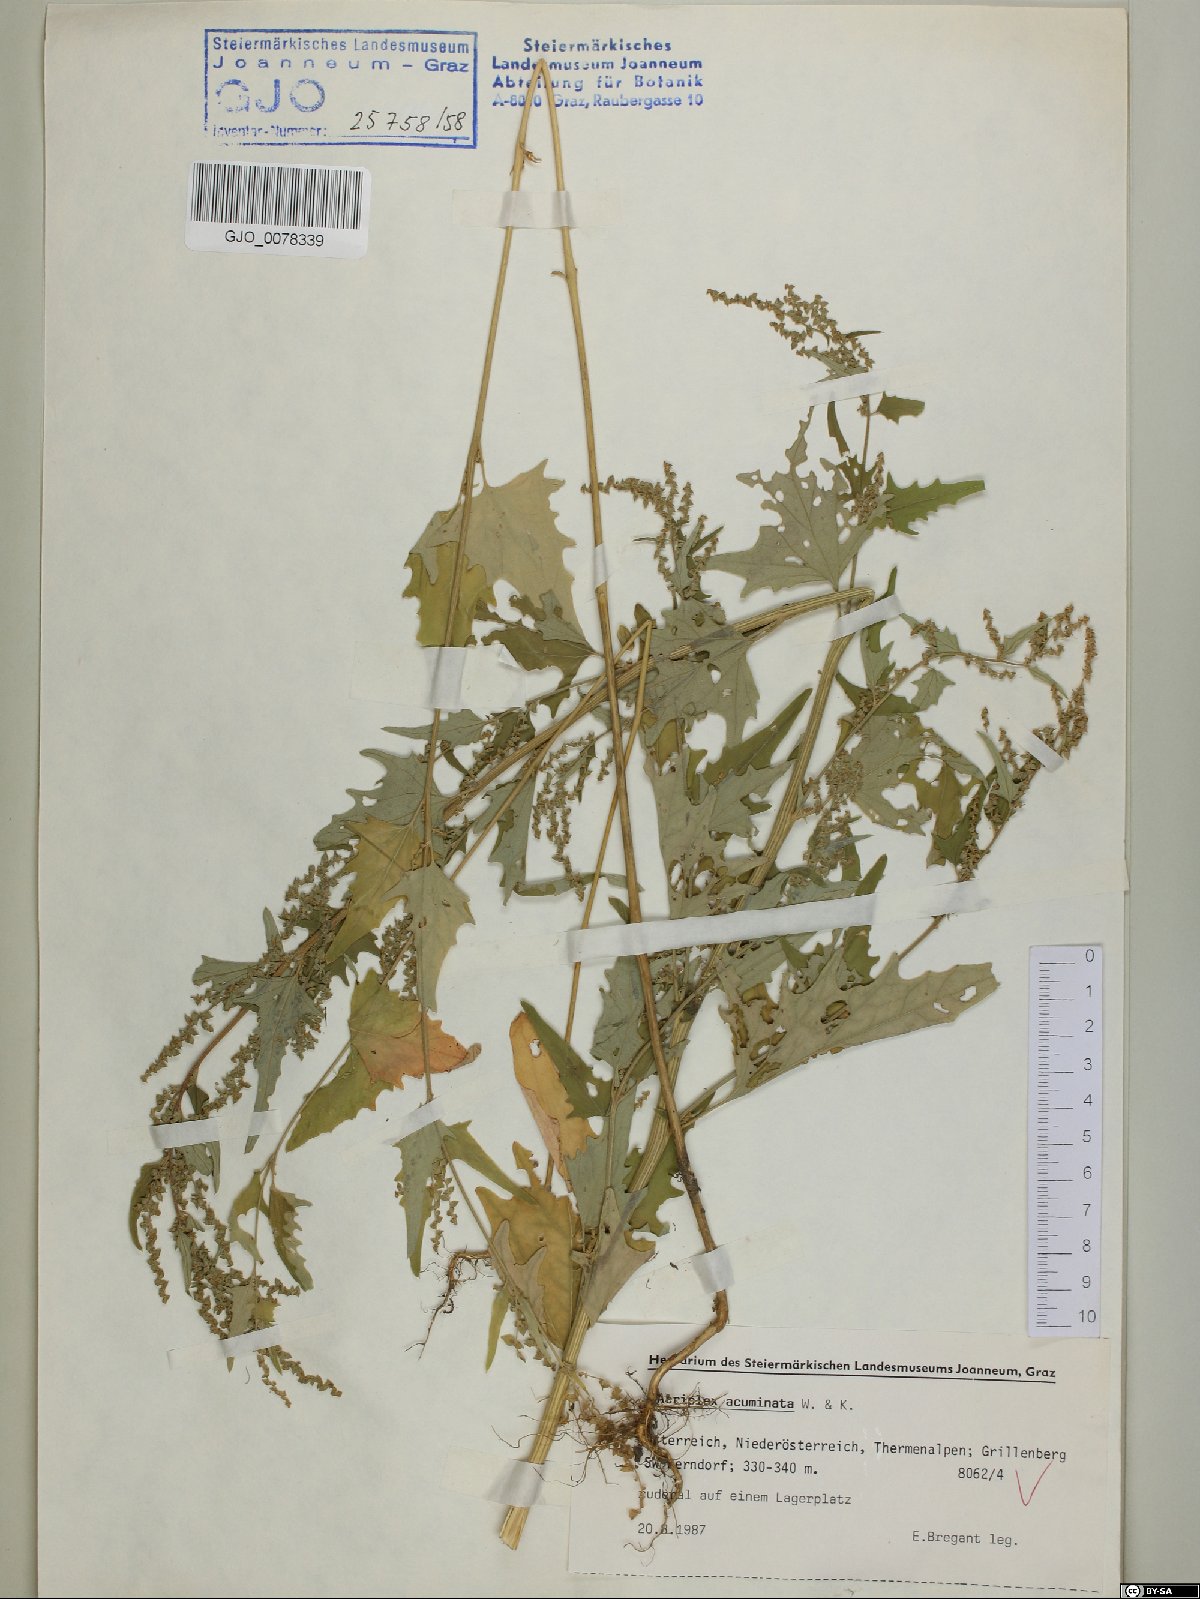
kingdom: Plantae
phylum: Tracheophyta
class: Magnoliopsida
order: Caryophyllales
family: Amaranthaceae
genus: Atriplex
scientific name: Atriplex sagittata
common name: Purple orache
